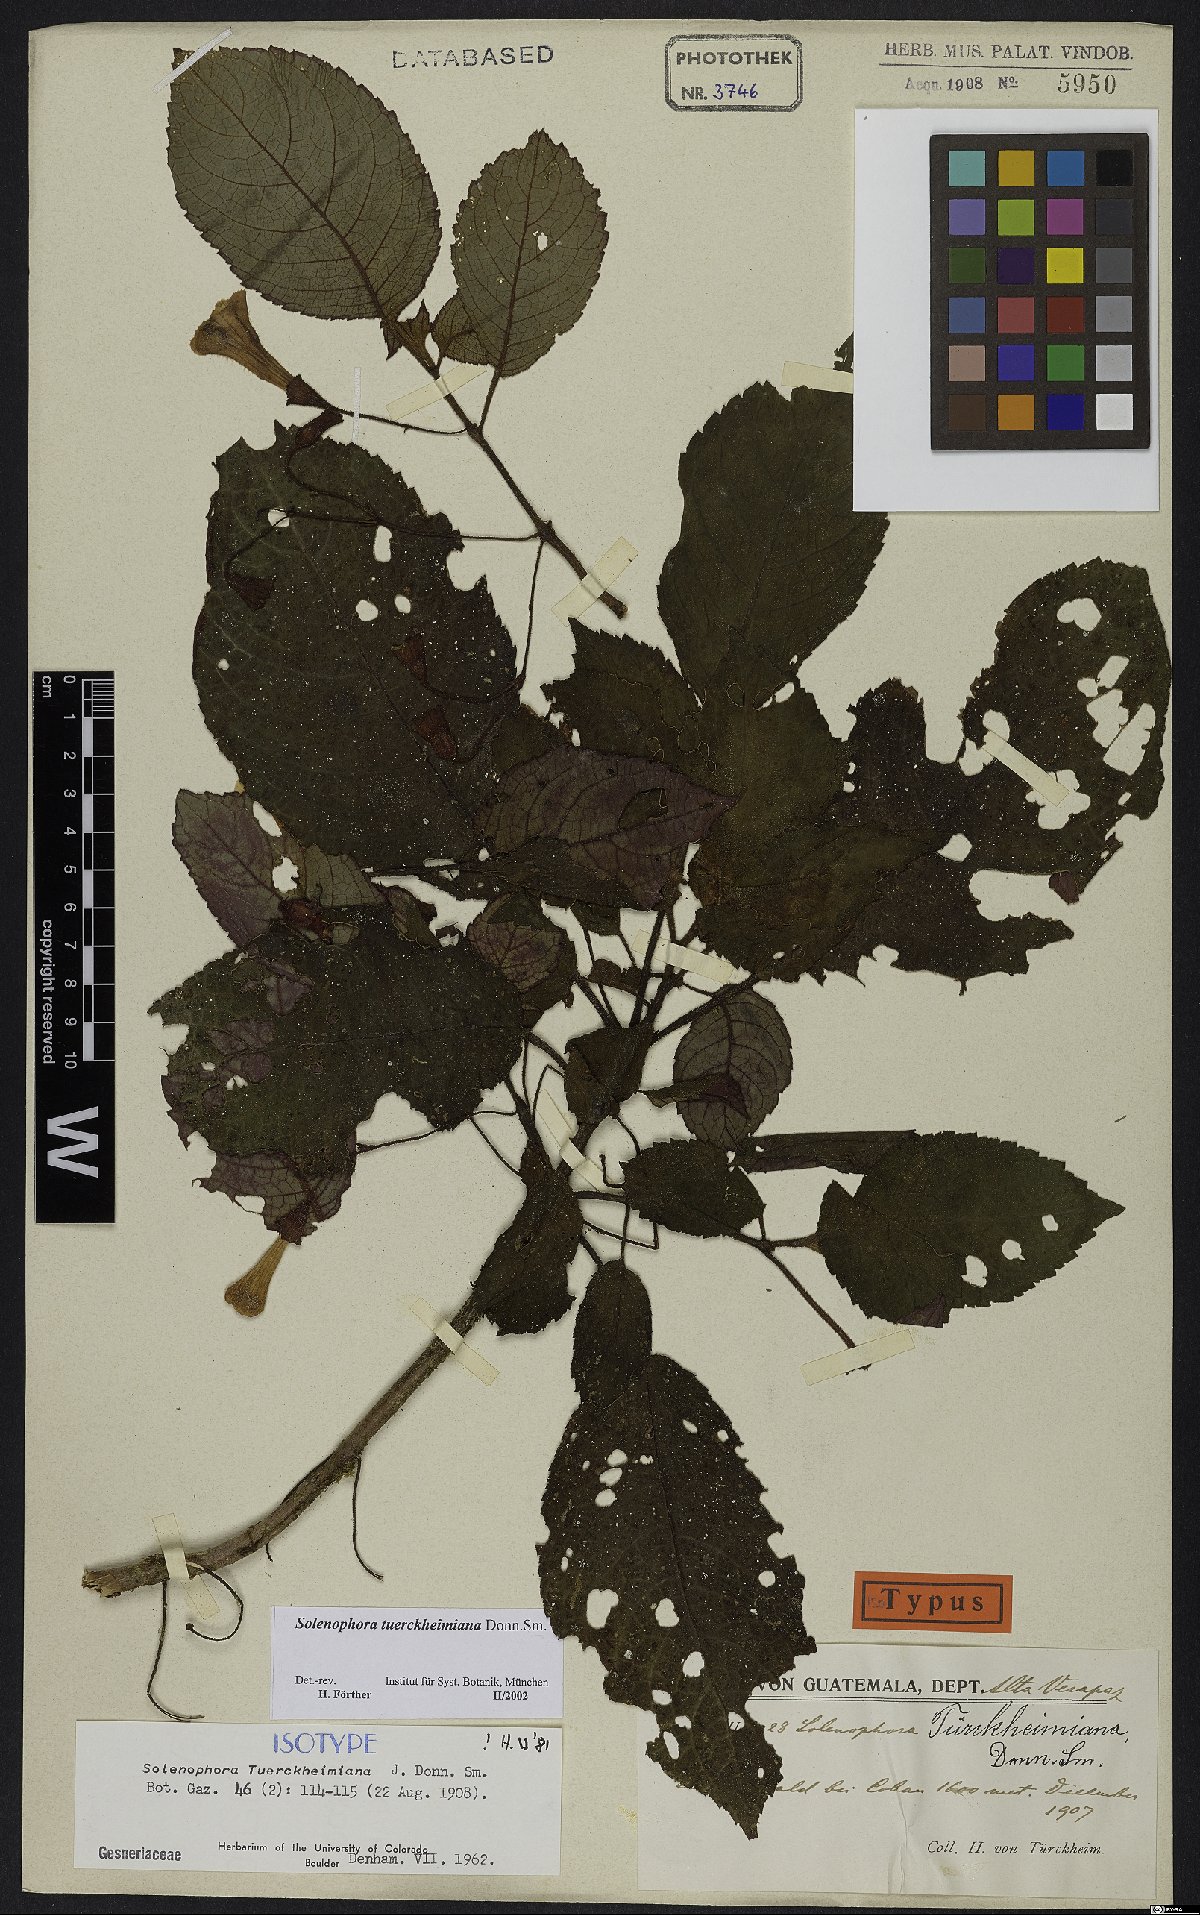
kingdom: Plantae
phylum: Tracheophyta
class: Magnoliopsida
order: Lamiales
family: Gesneriaceae
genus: Solenophora
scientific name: Solenophora tuerckheimiana
